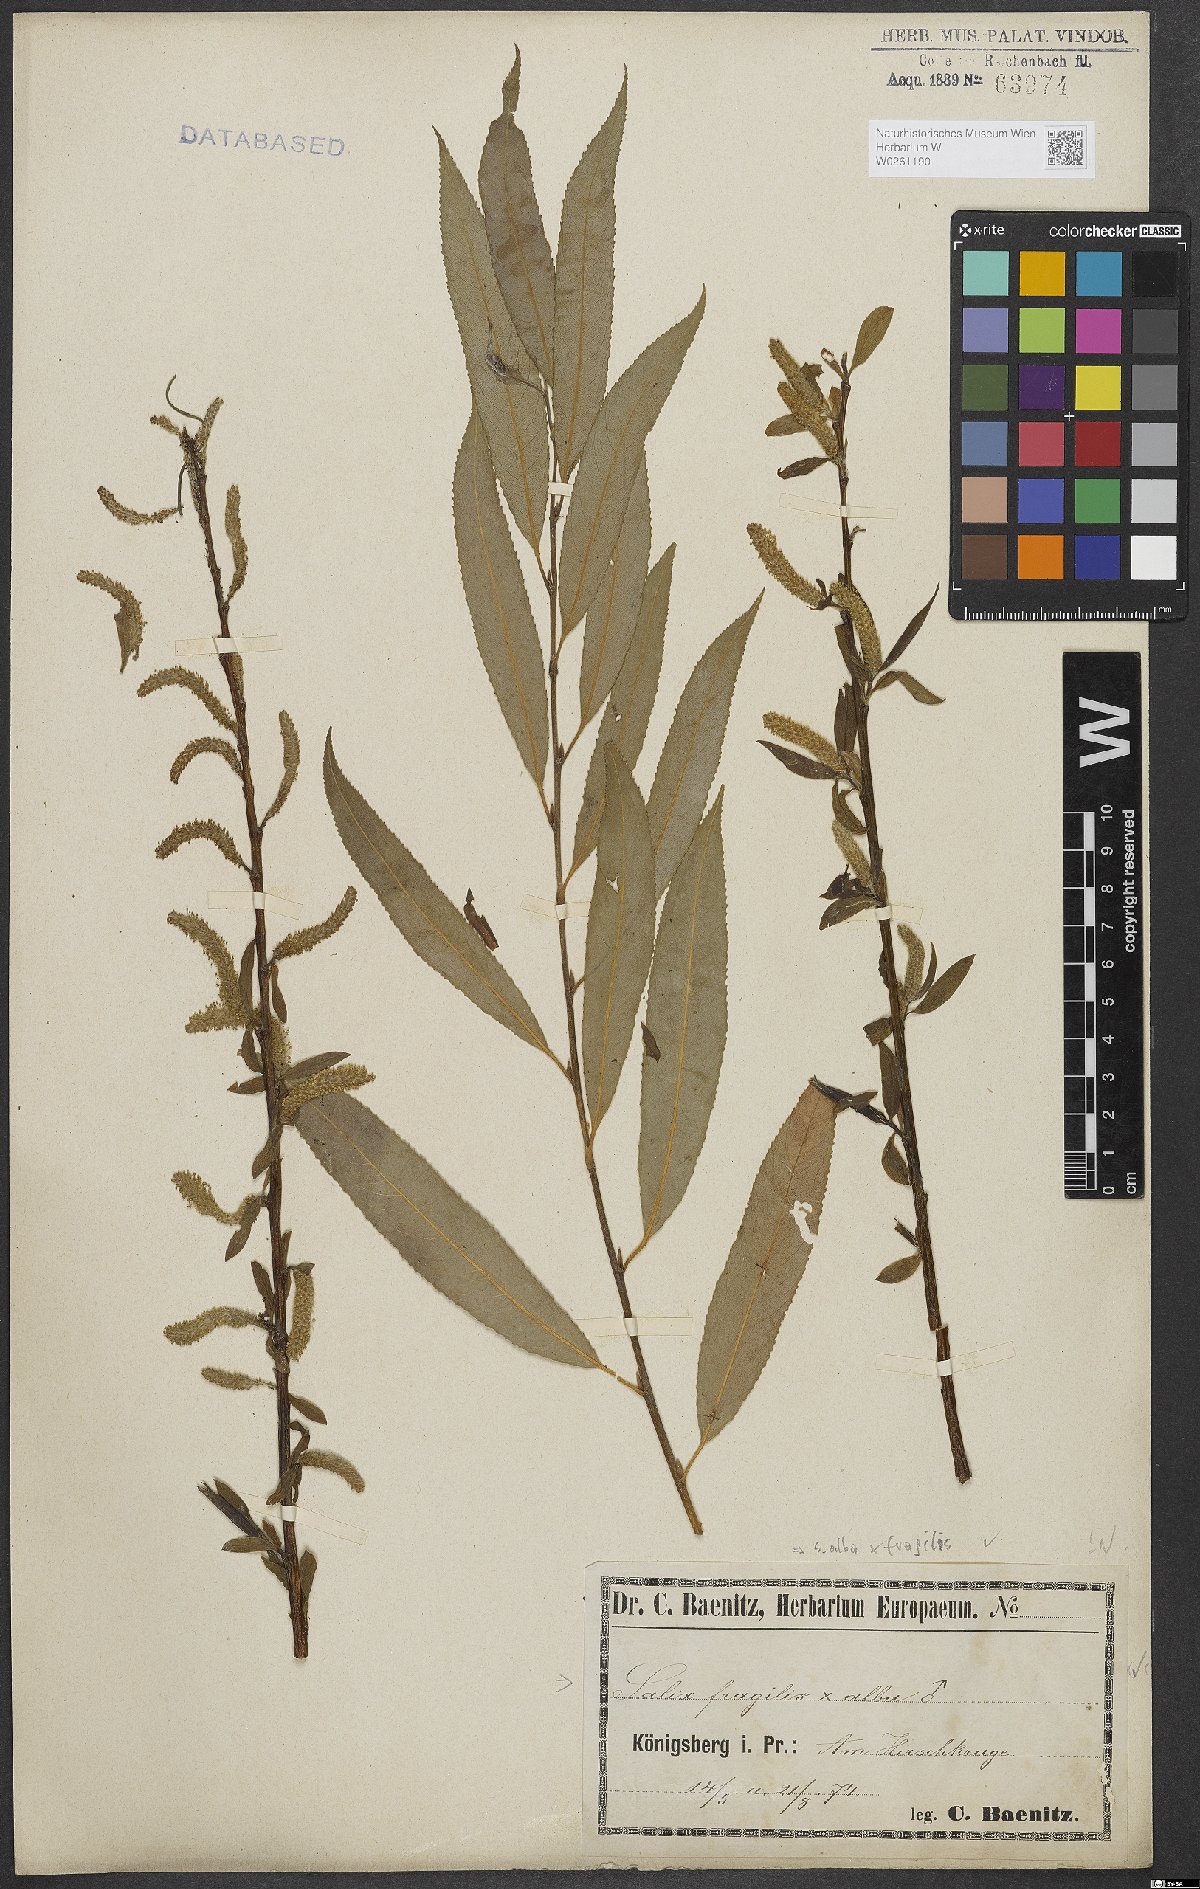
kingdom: Plantae
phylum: Tracheophyta
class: Magnoliopsida
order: Malpighiales
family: Salicaceae
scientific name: Salicaceae
